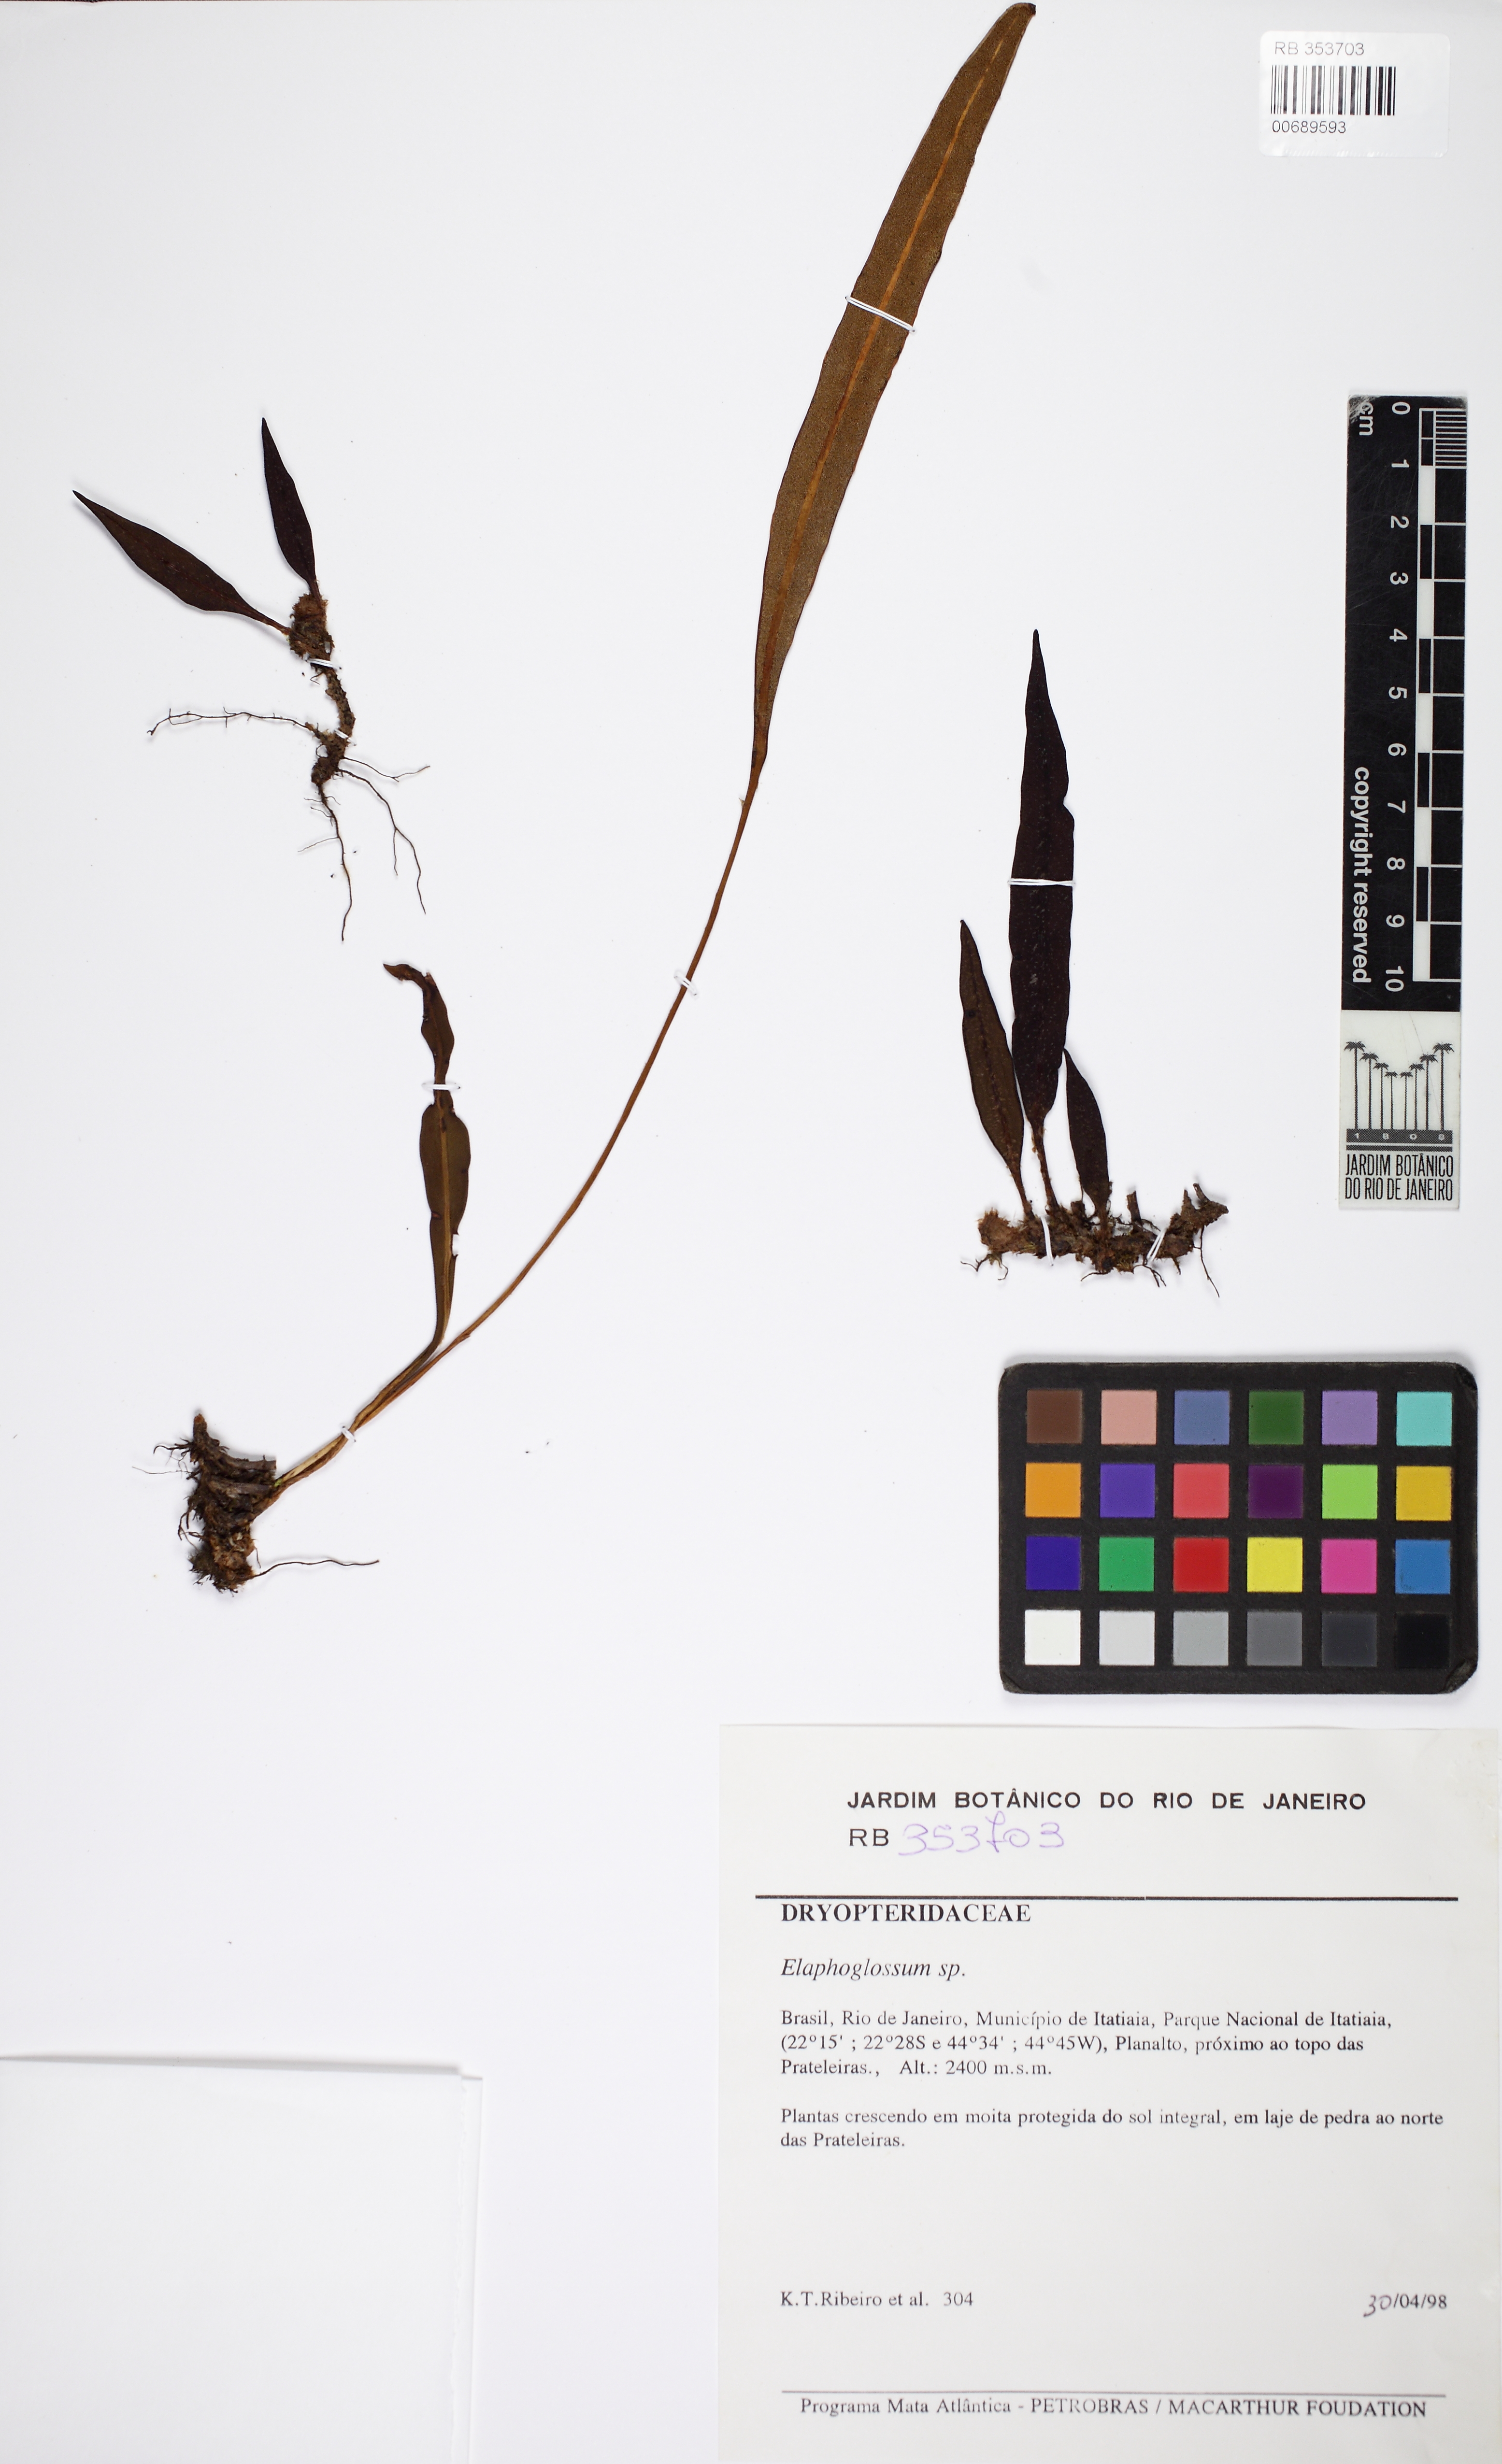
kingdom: Plantae
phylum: Tracheophyta
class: Polypodiopsida
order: Polypodiales
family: Dryopteridaceae
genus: Elaphoglossum
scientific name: Elaphoglossum gayanum
